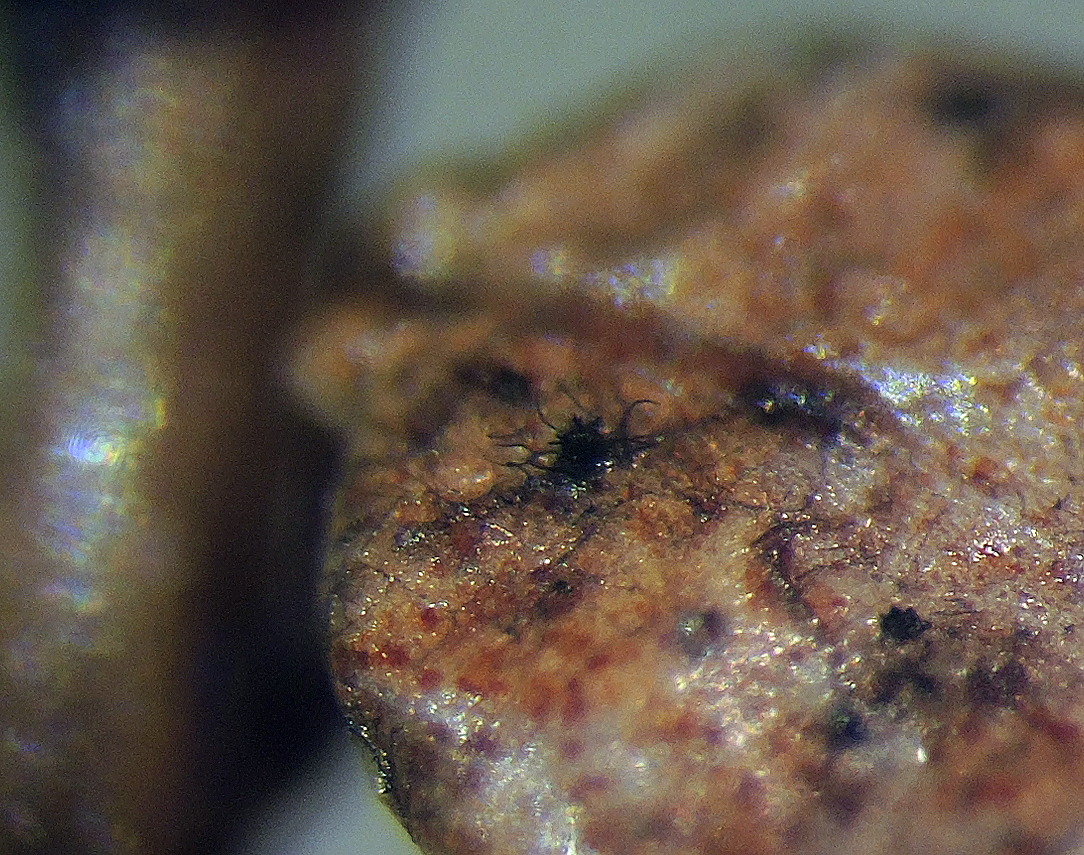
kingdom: Fungi
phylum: Ascomycota
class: Dothideomycetes
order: Venturiales
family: Venturiaceae
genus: Gibbera
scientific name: Gibbera
